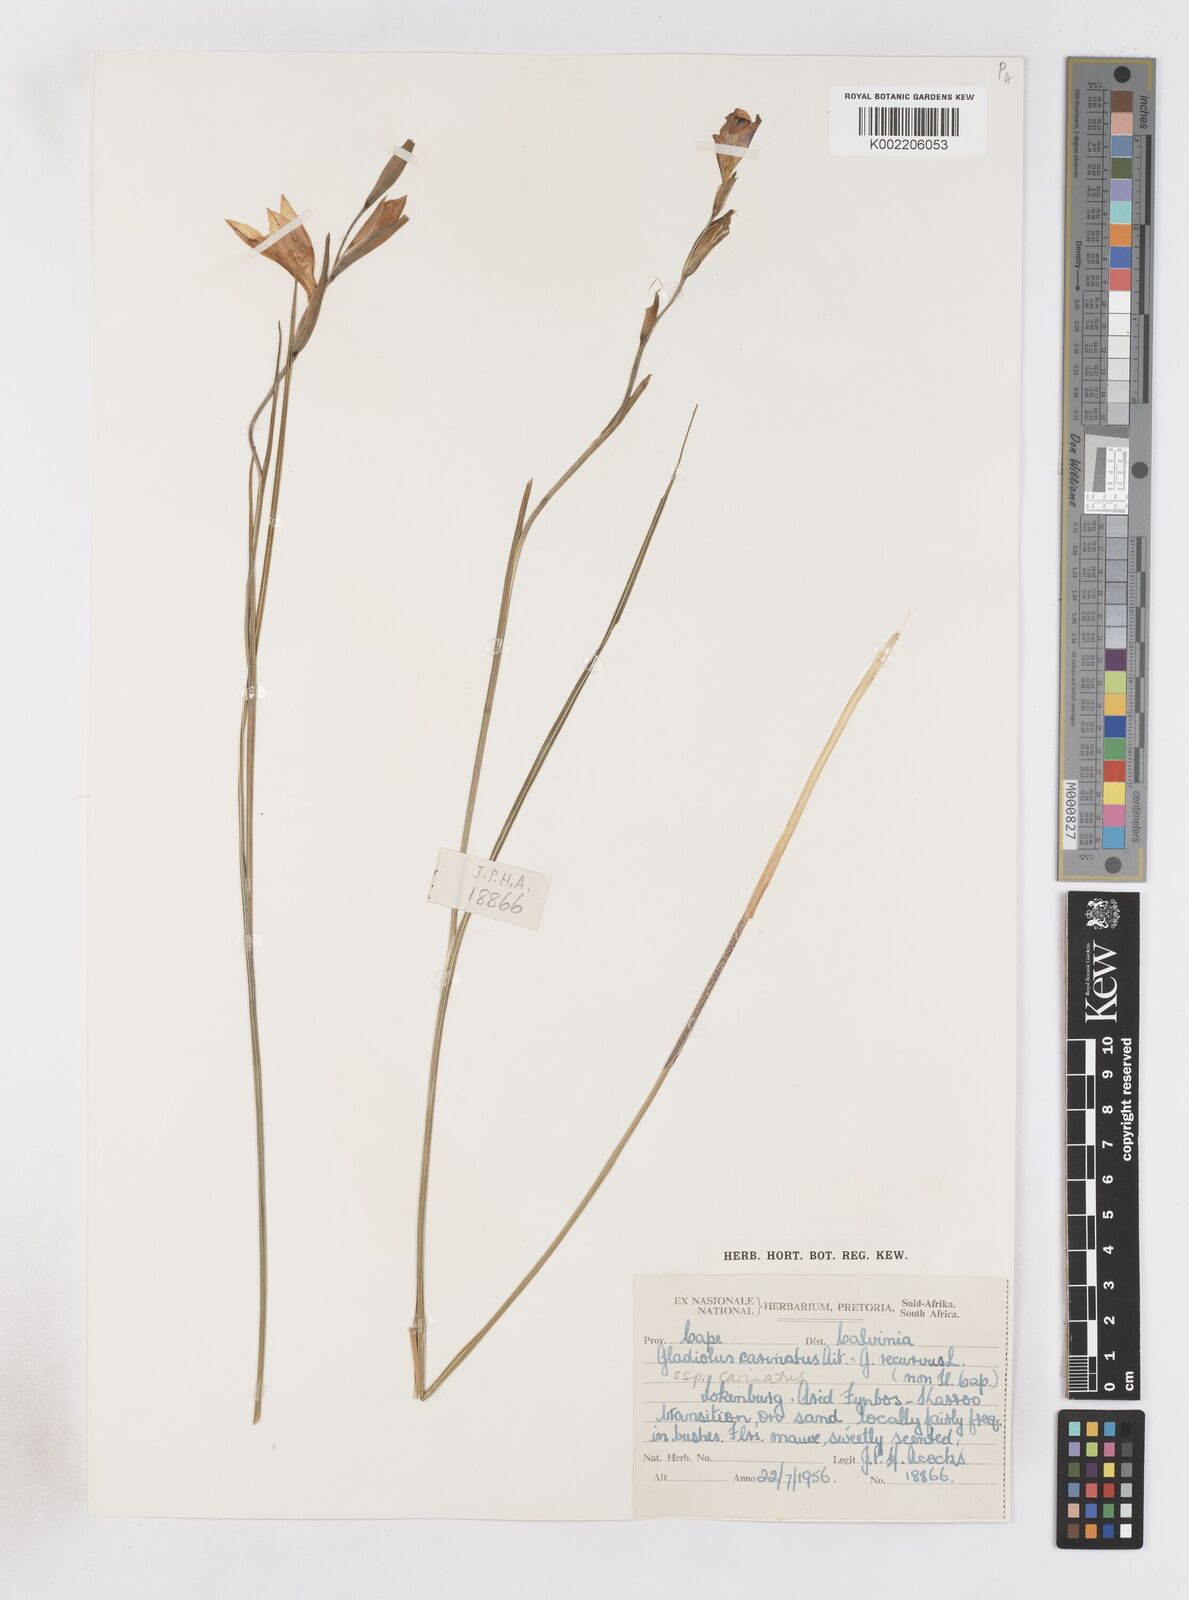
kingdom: Plantae
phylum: Tracheophyta
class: Liliopsida
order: Asparagales
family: Iridaceae
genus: Gladiolus
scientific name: Gladiolus carinatus
